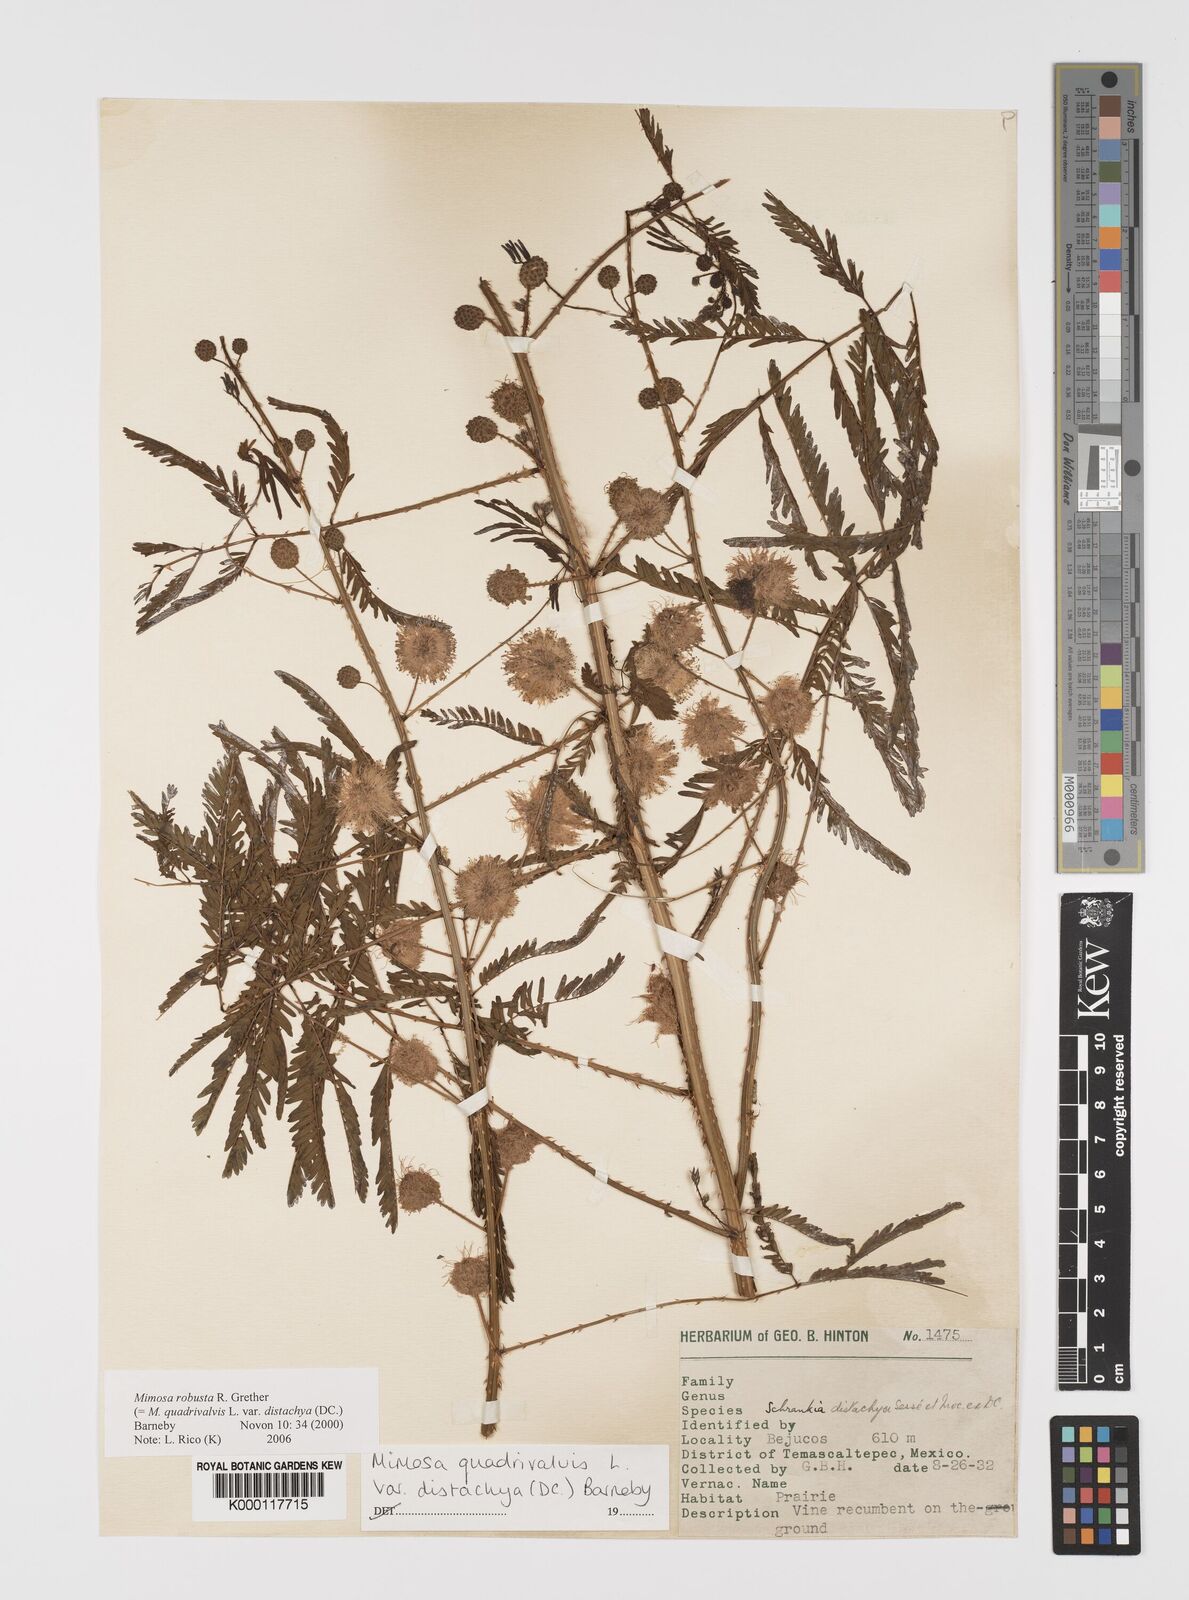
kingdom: Plantae
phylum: Tracheophyta
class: Magnoliopsida
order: Fabales
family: Fabaceae
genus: Mimosa
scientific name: Mimosa robusta
